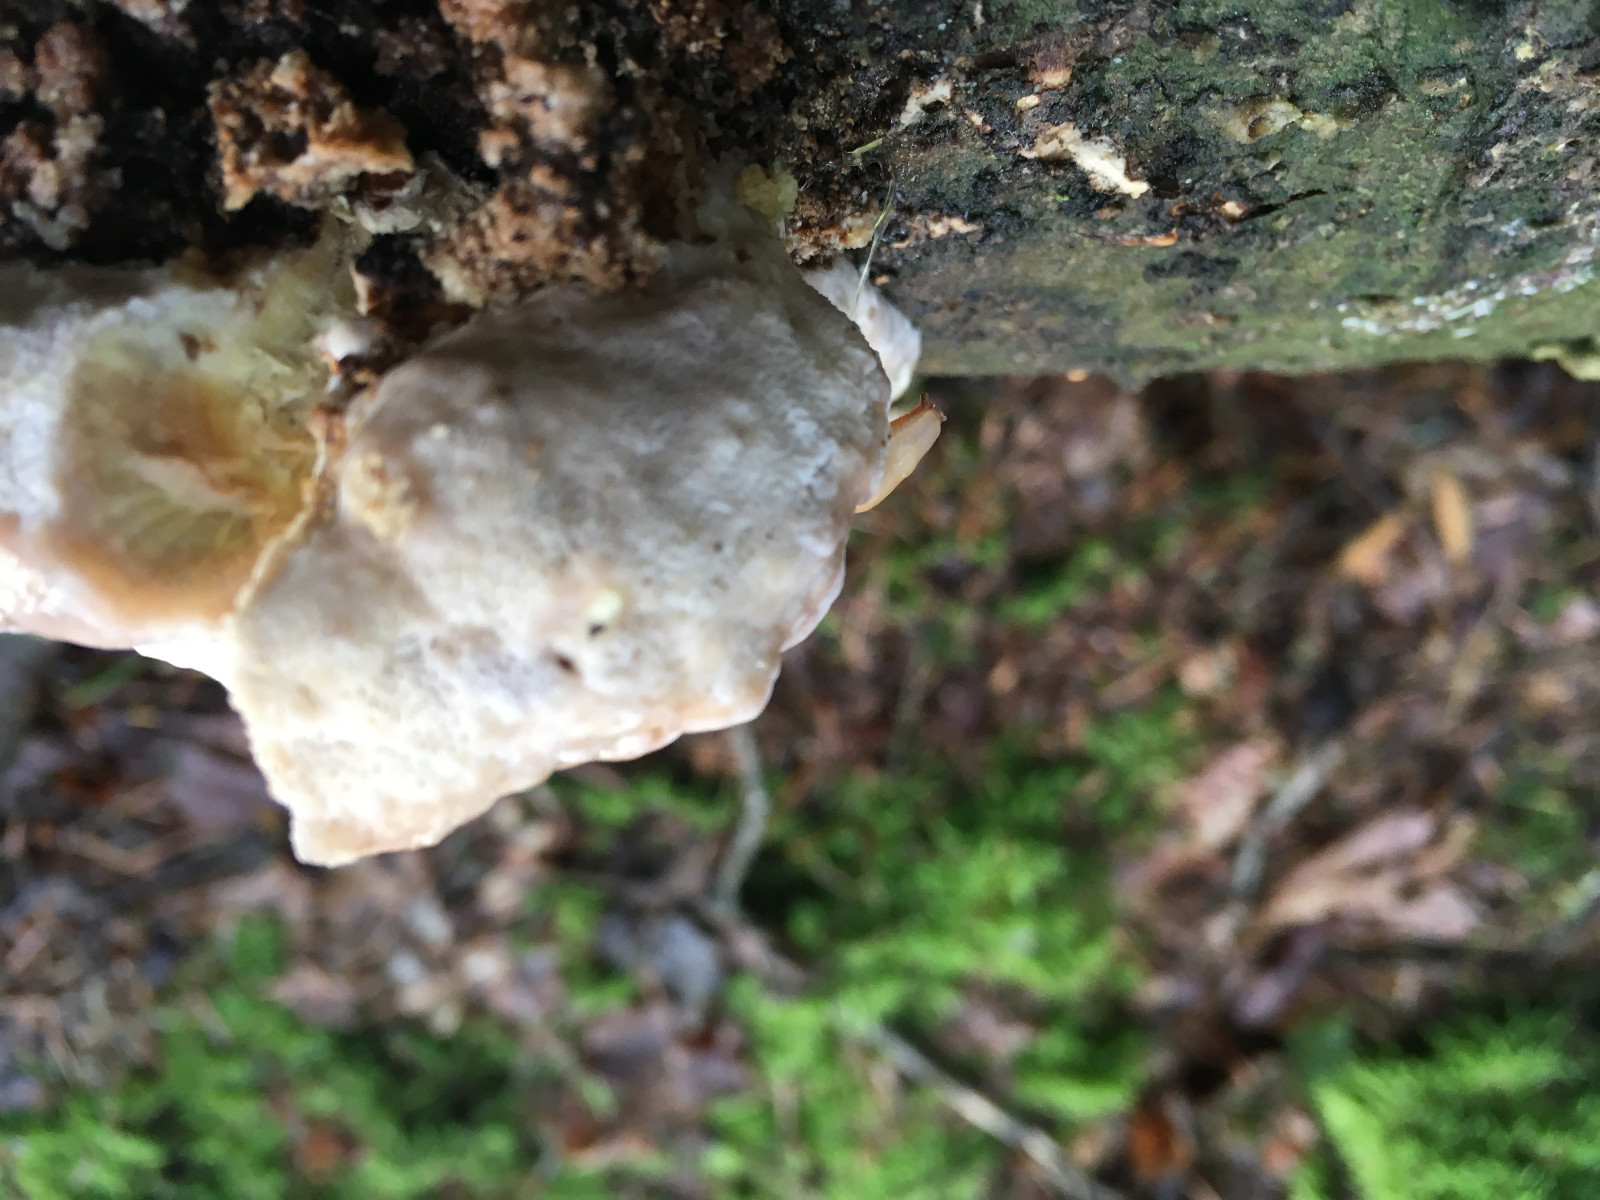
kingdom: Fungi
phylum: Basidiomycota
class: Agaricomycetes
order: Polyporales
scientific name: Polyporales
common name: poresvampordenen
